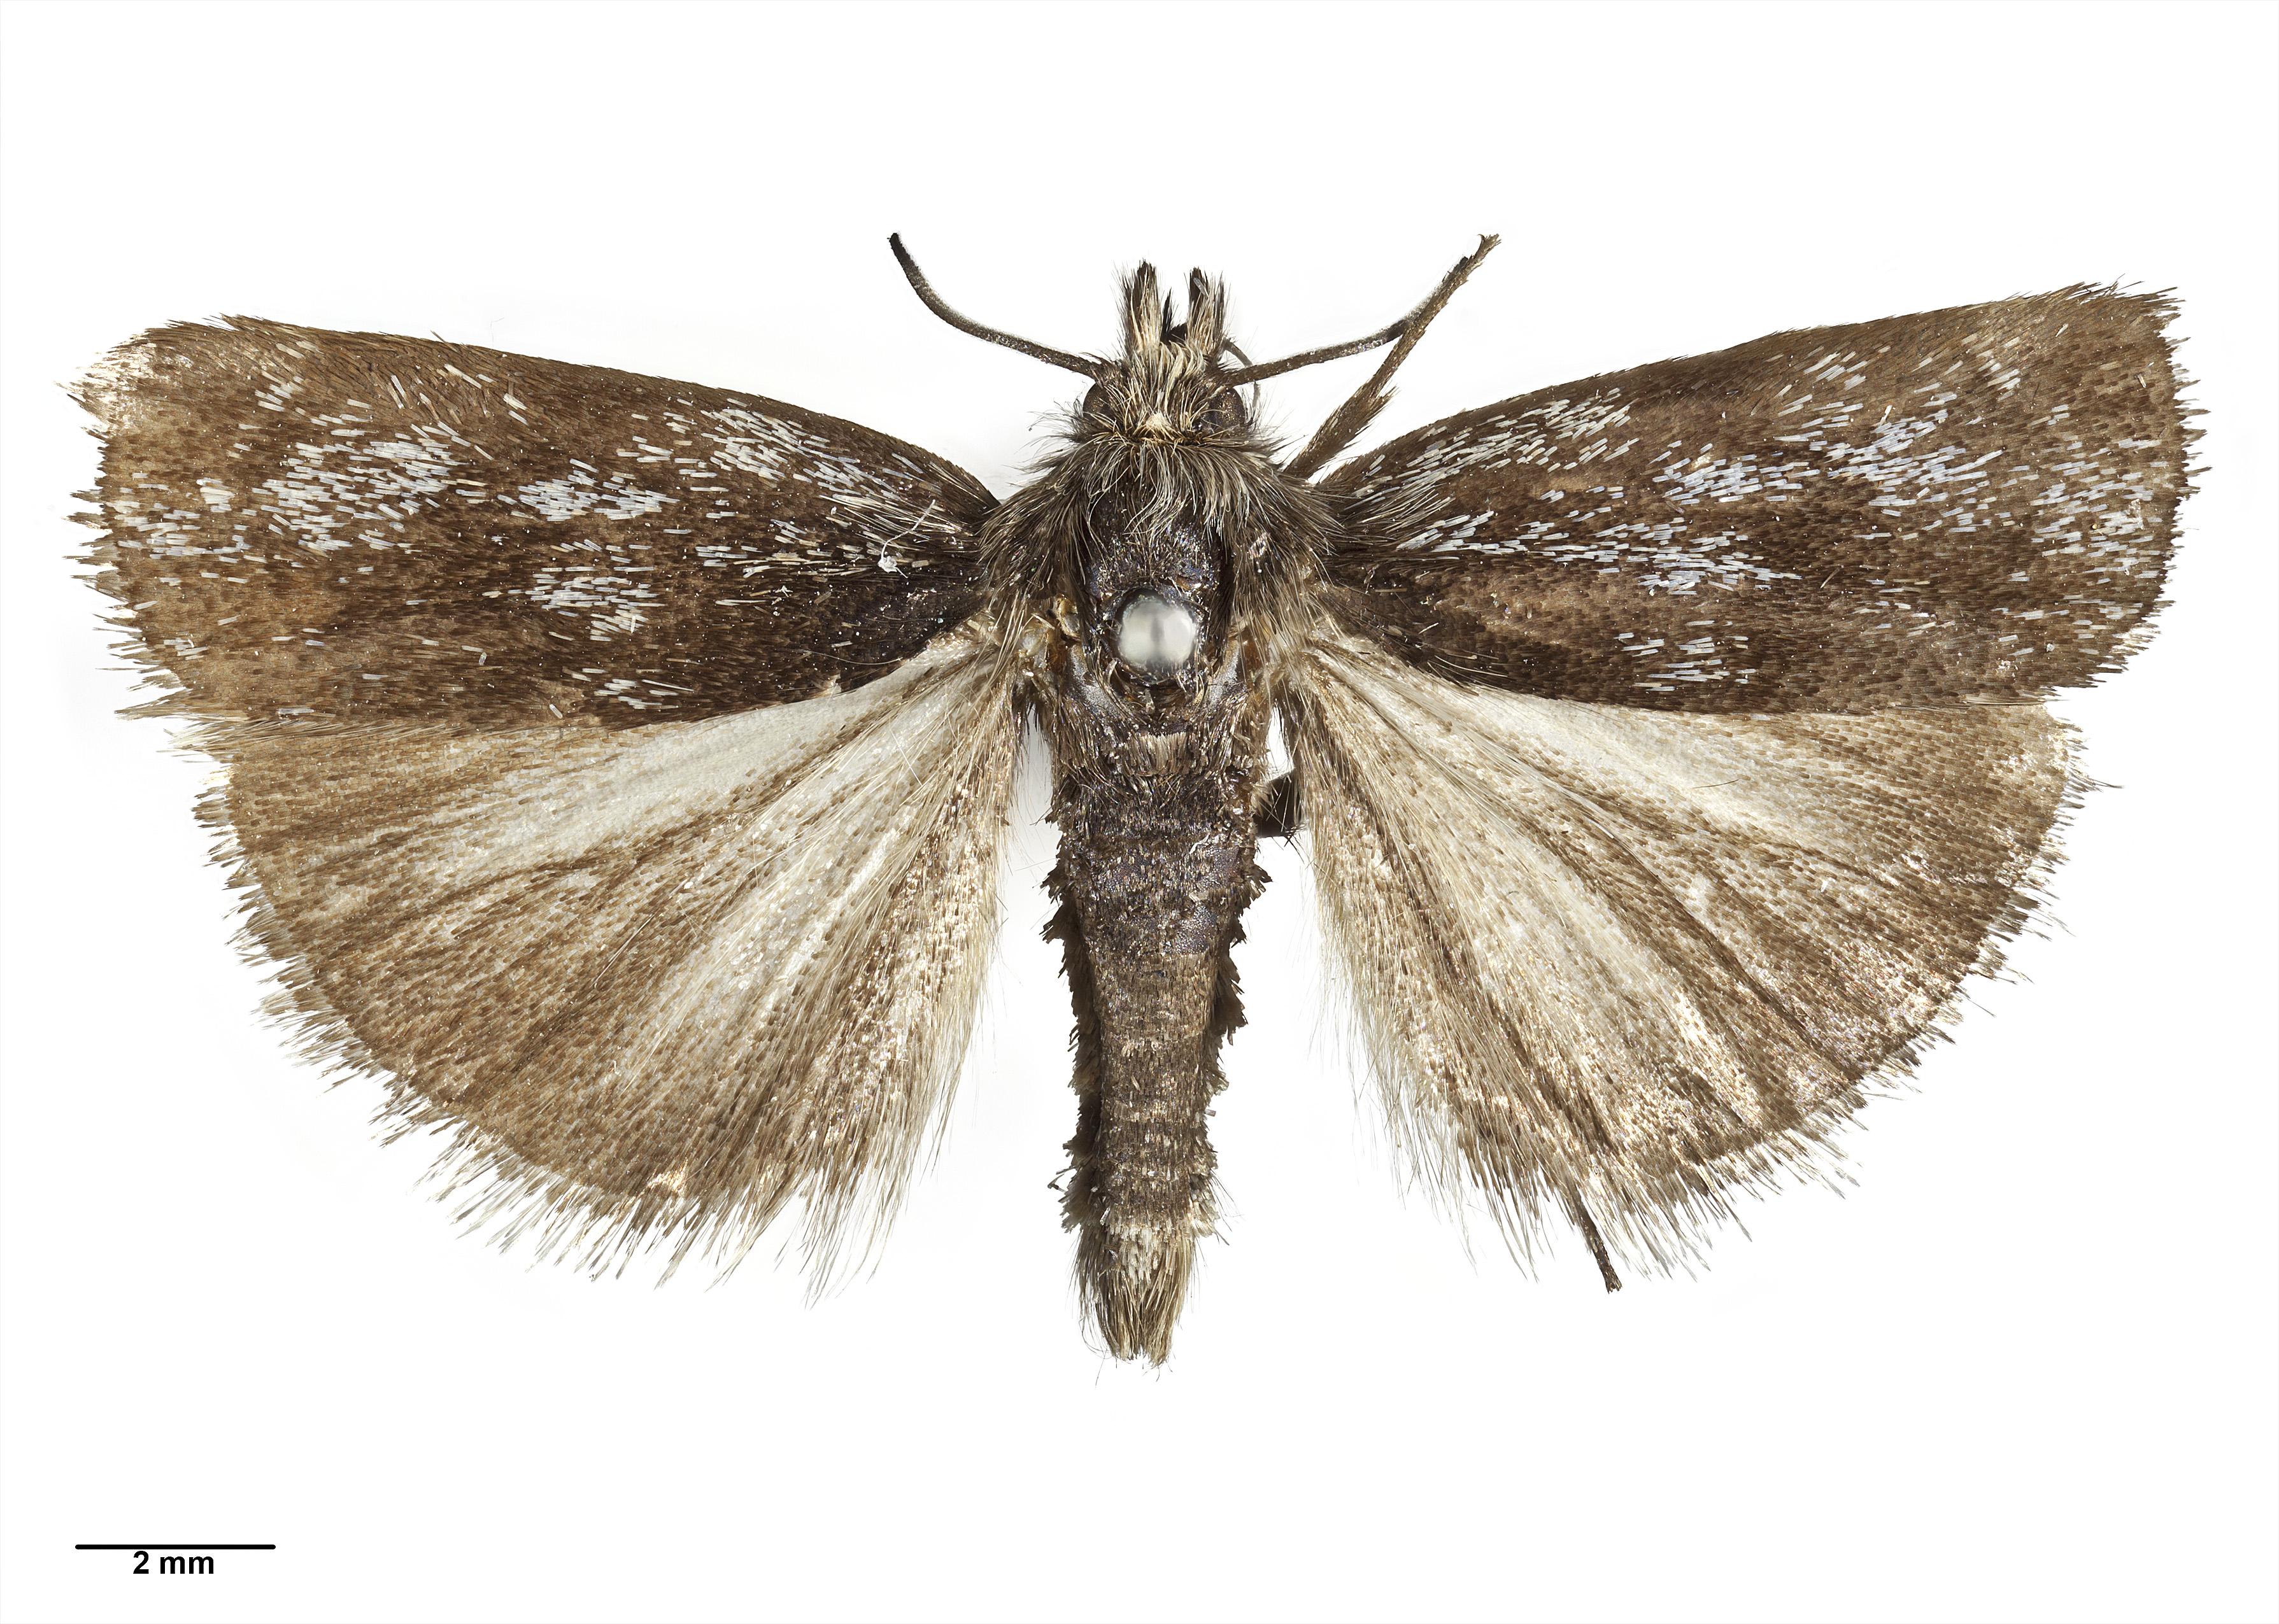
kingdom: Animalia
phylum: Arthropoda
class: Insecta
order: Lepidoptera
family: Crambidae
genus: Orocrambus
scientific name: Orocrambus clarkei
